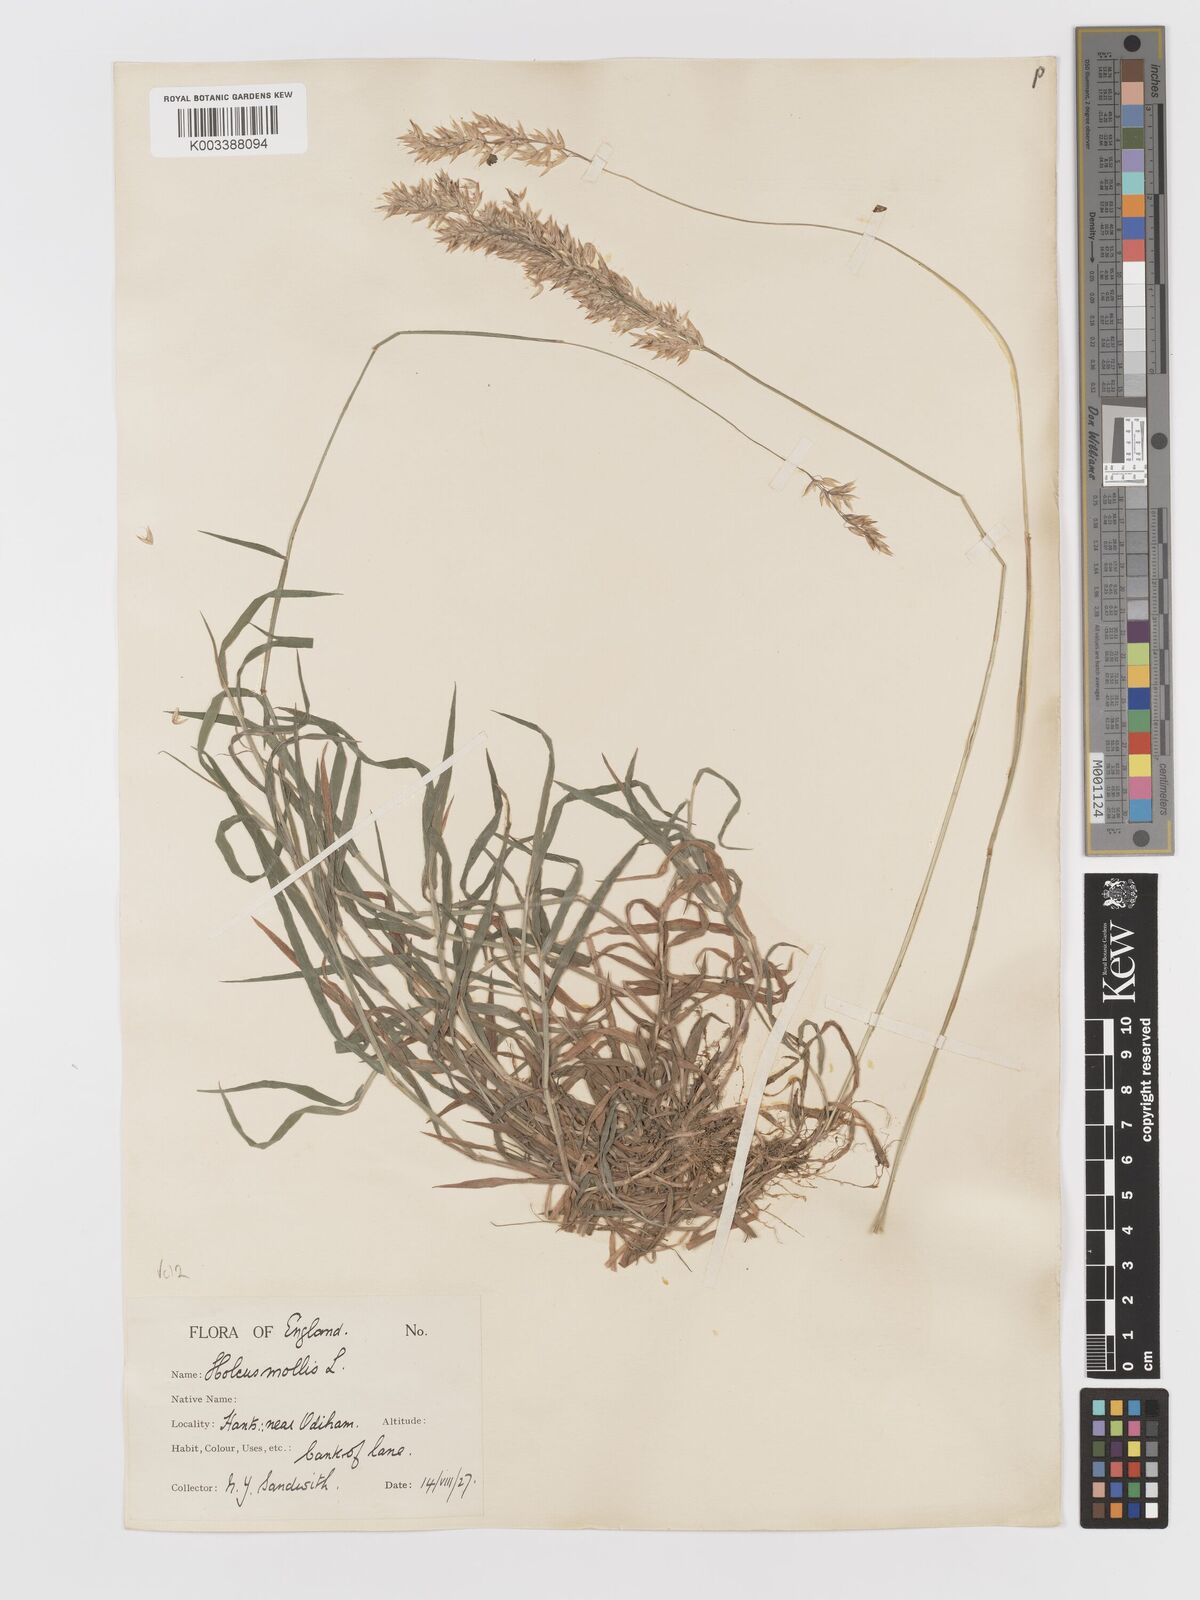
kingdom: Plantae
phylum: Tracheophyta
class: Liliopsida
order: Poales
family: Poaceae
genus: Holcus
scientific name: Holcus mollis
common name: Creeping velvetgrass
